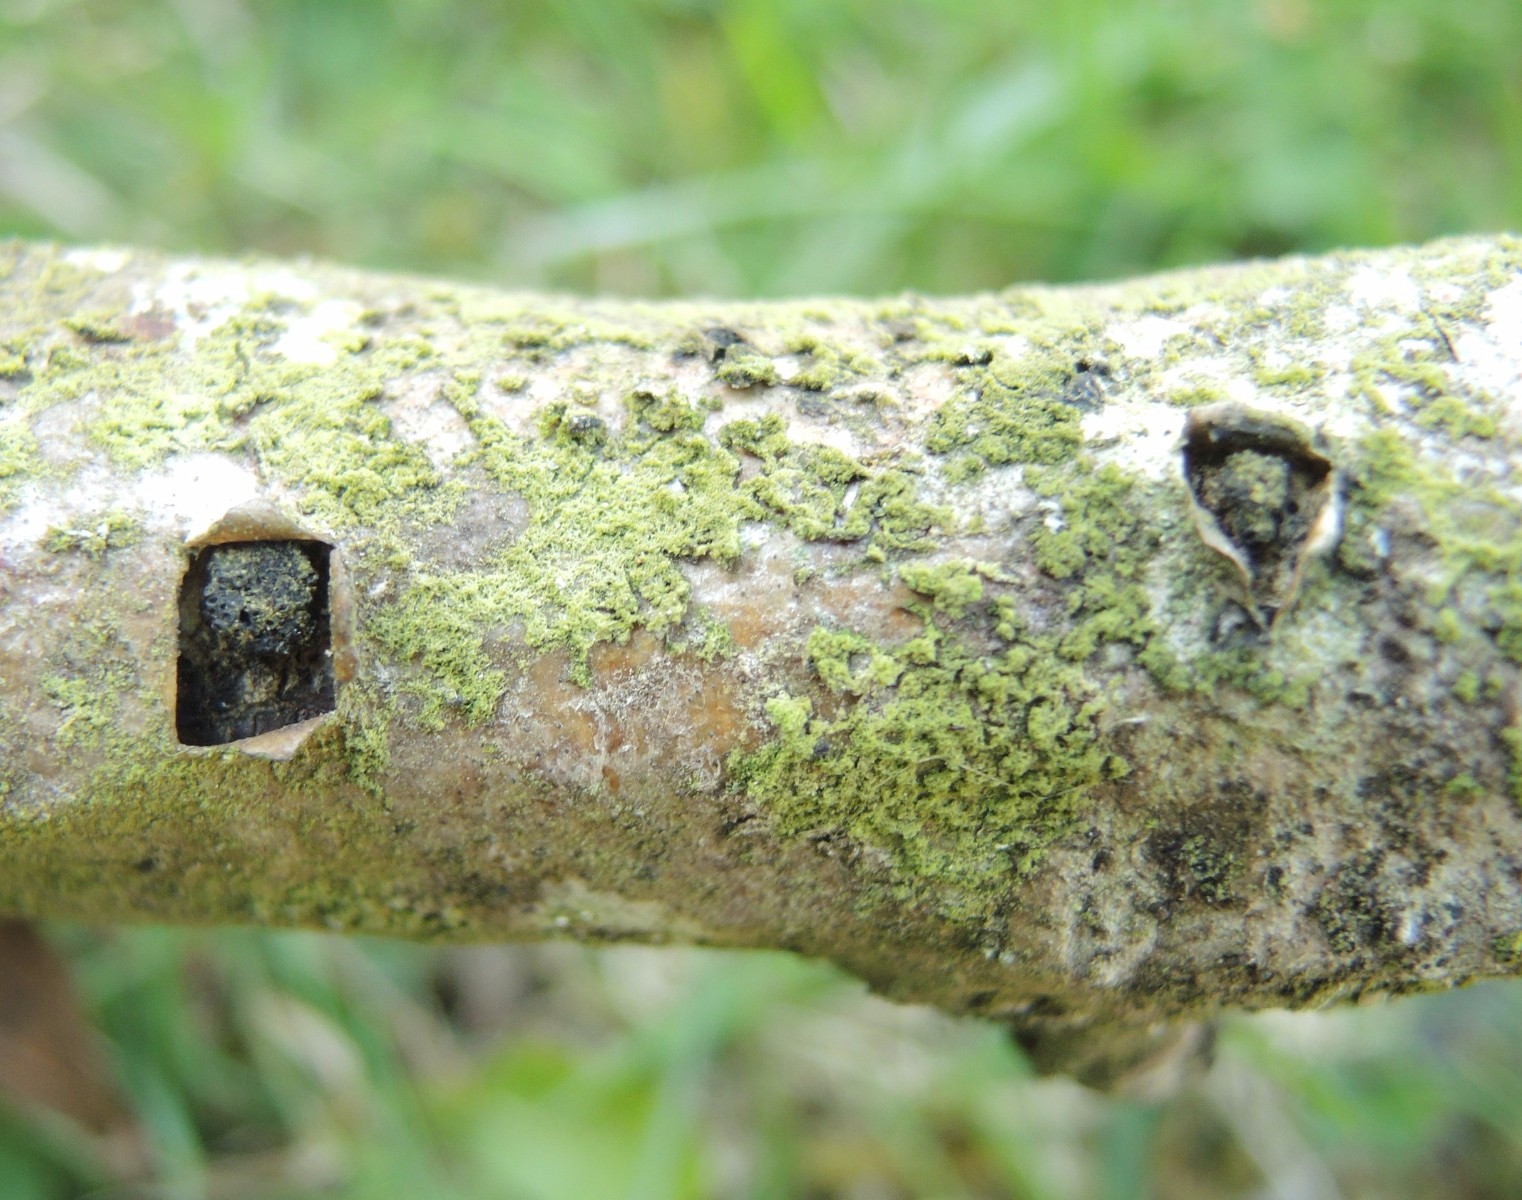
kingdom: Fungi
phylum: Ascomycota
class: Sordariomycetes
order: Xylariales
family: Diatrypaceae
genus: Eutypella
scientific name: Eutypella sorbi
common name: rønne-kulskorpe
